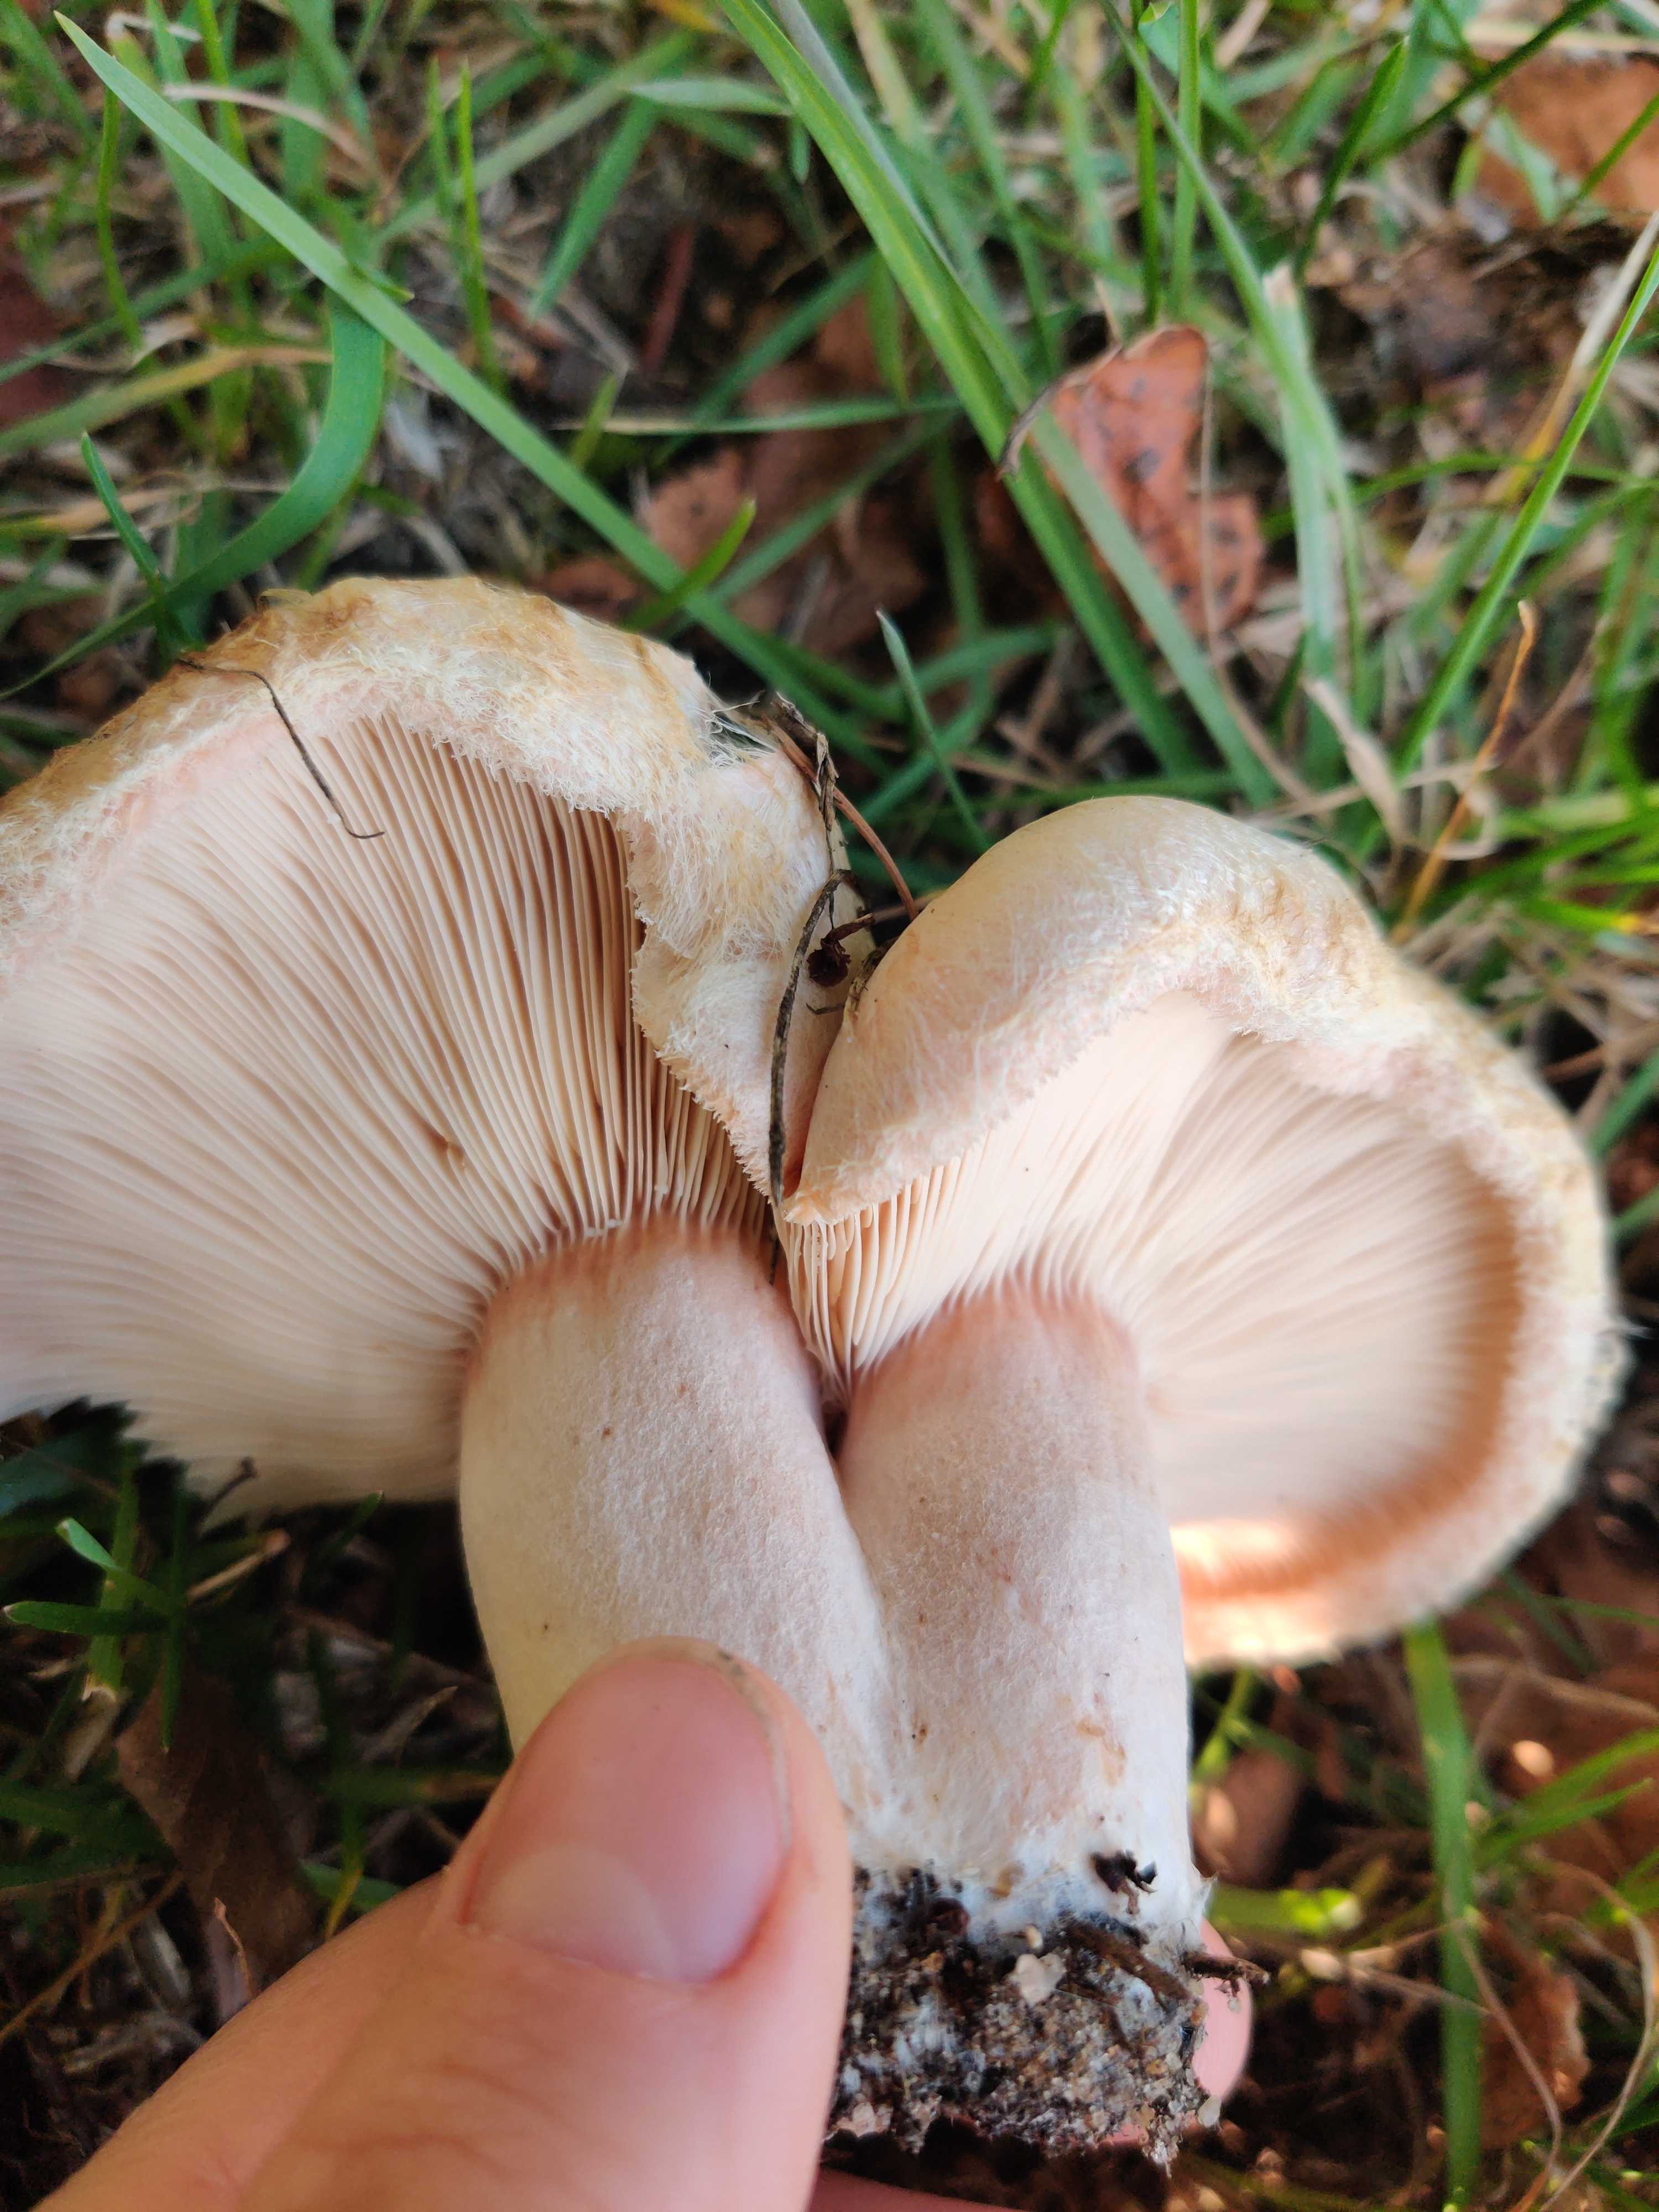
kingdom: Fungi
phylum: Basidiomycota
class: Agaricomycetes
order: Russulales
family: Russulaceae
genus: Lactarius
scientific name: Lactarius torminosus
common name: skægget mælkehat
